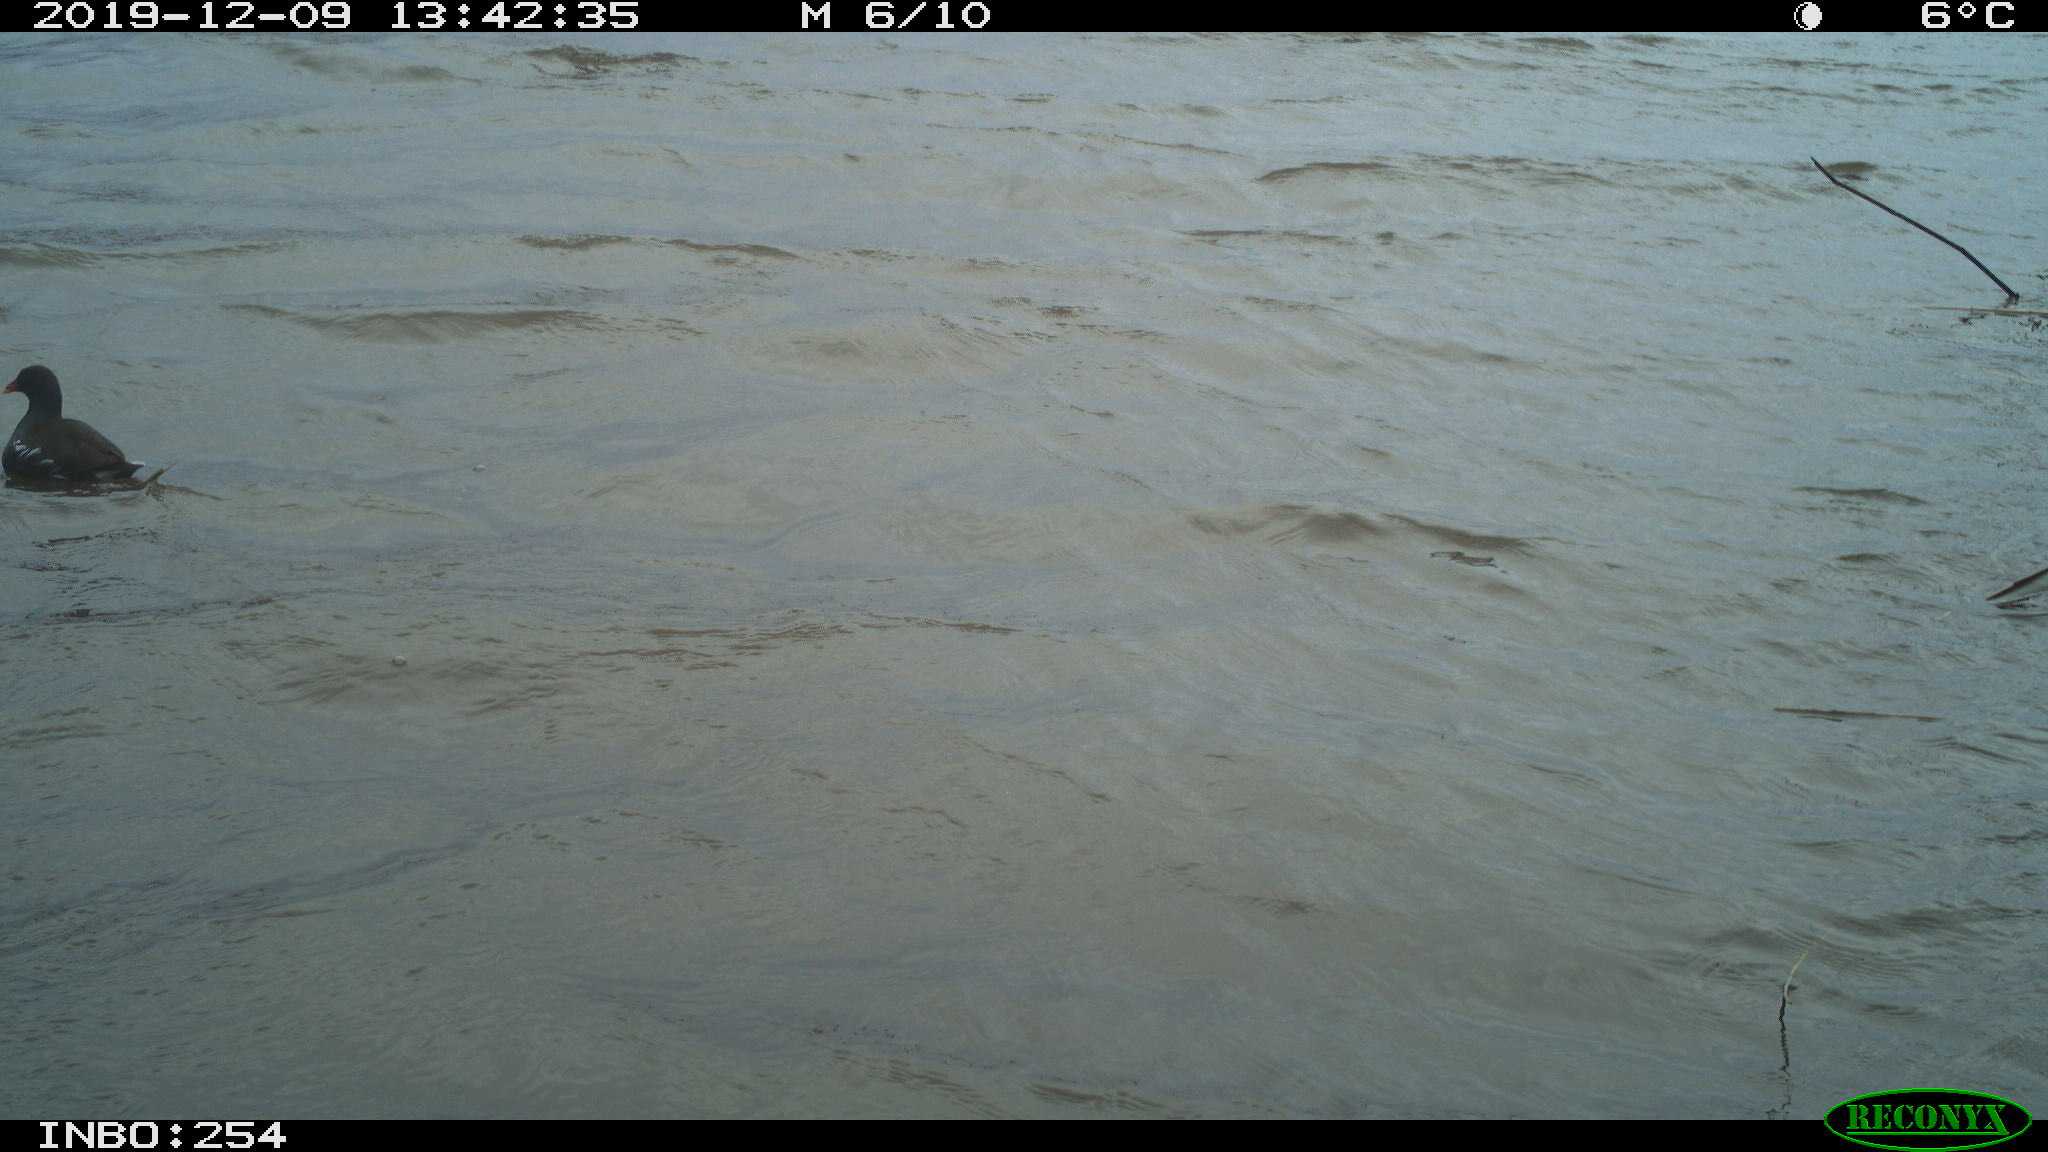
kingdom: Animalia
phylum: Chordata
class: Aves
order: Gruiformes
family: Rallidae
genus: Gallinula
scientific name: Gallinula chloropus
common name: Common moorhen
